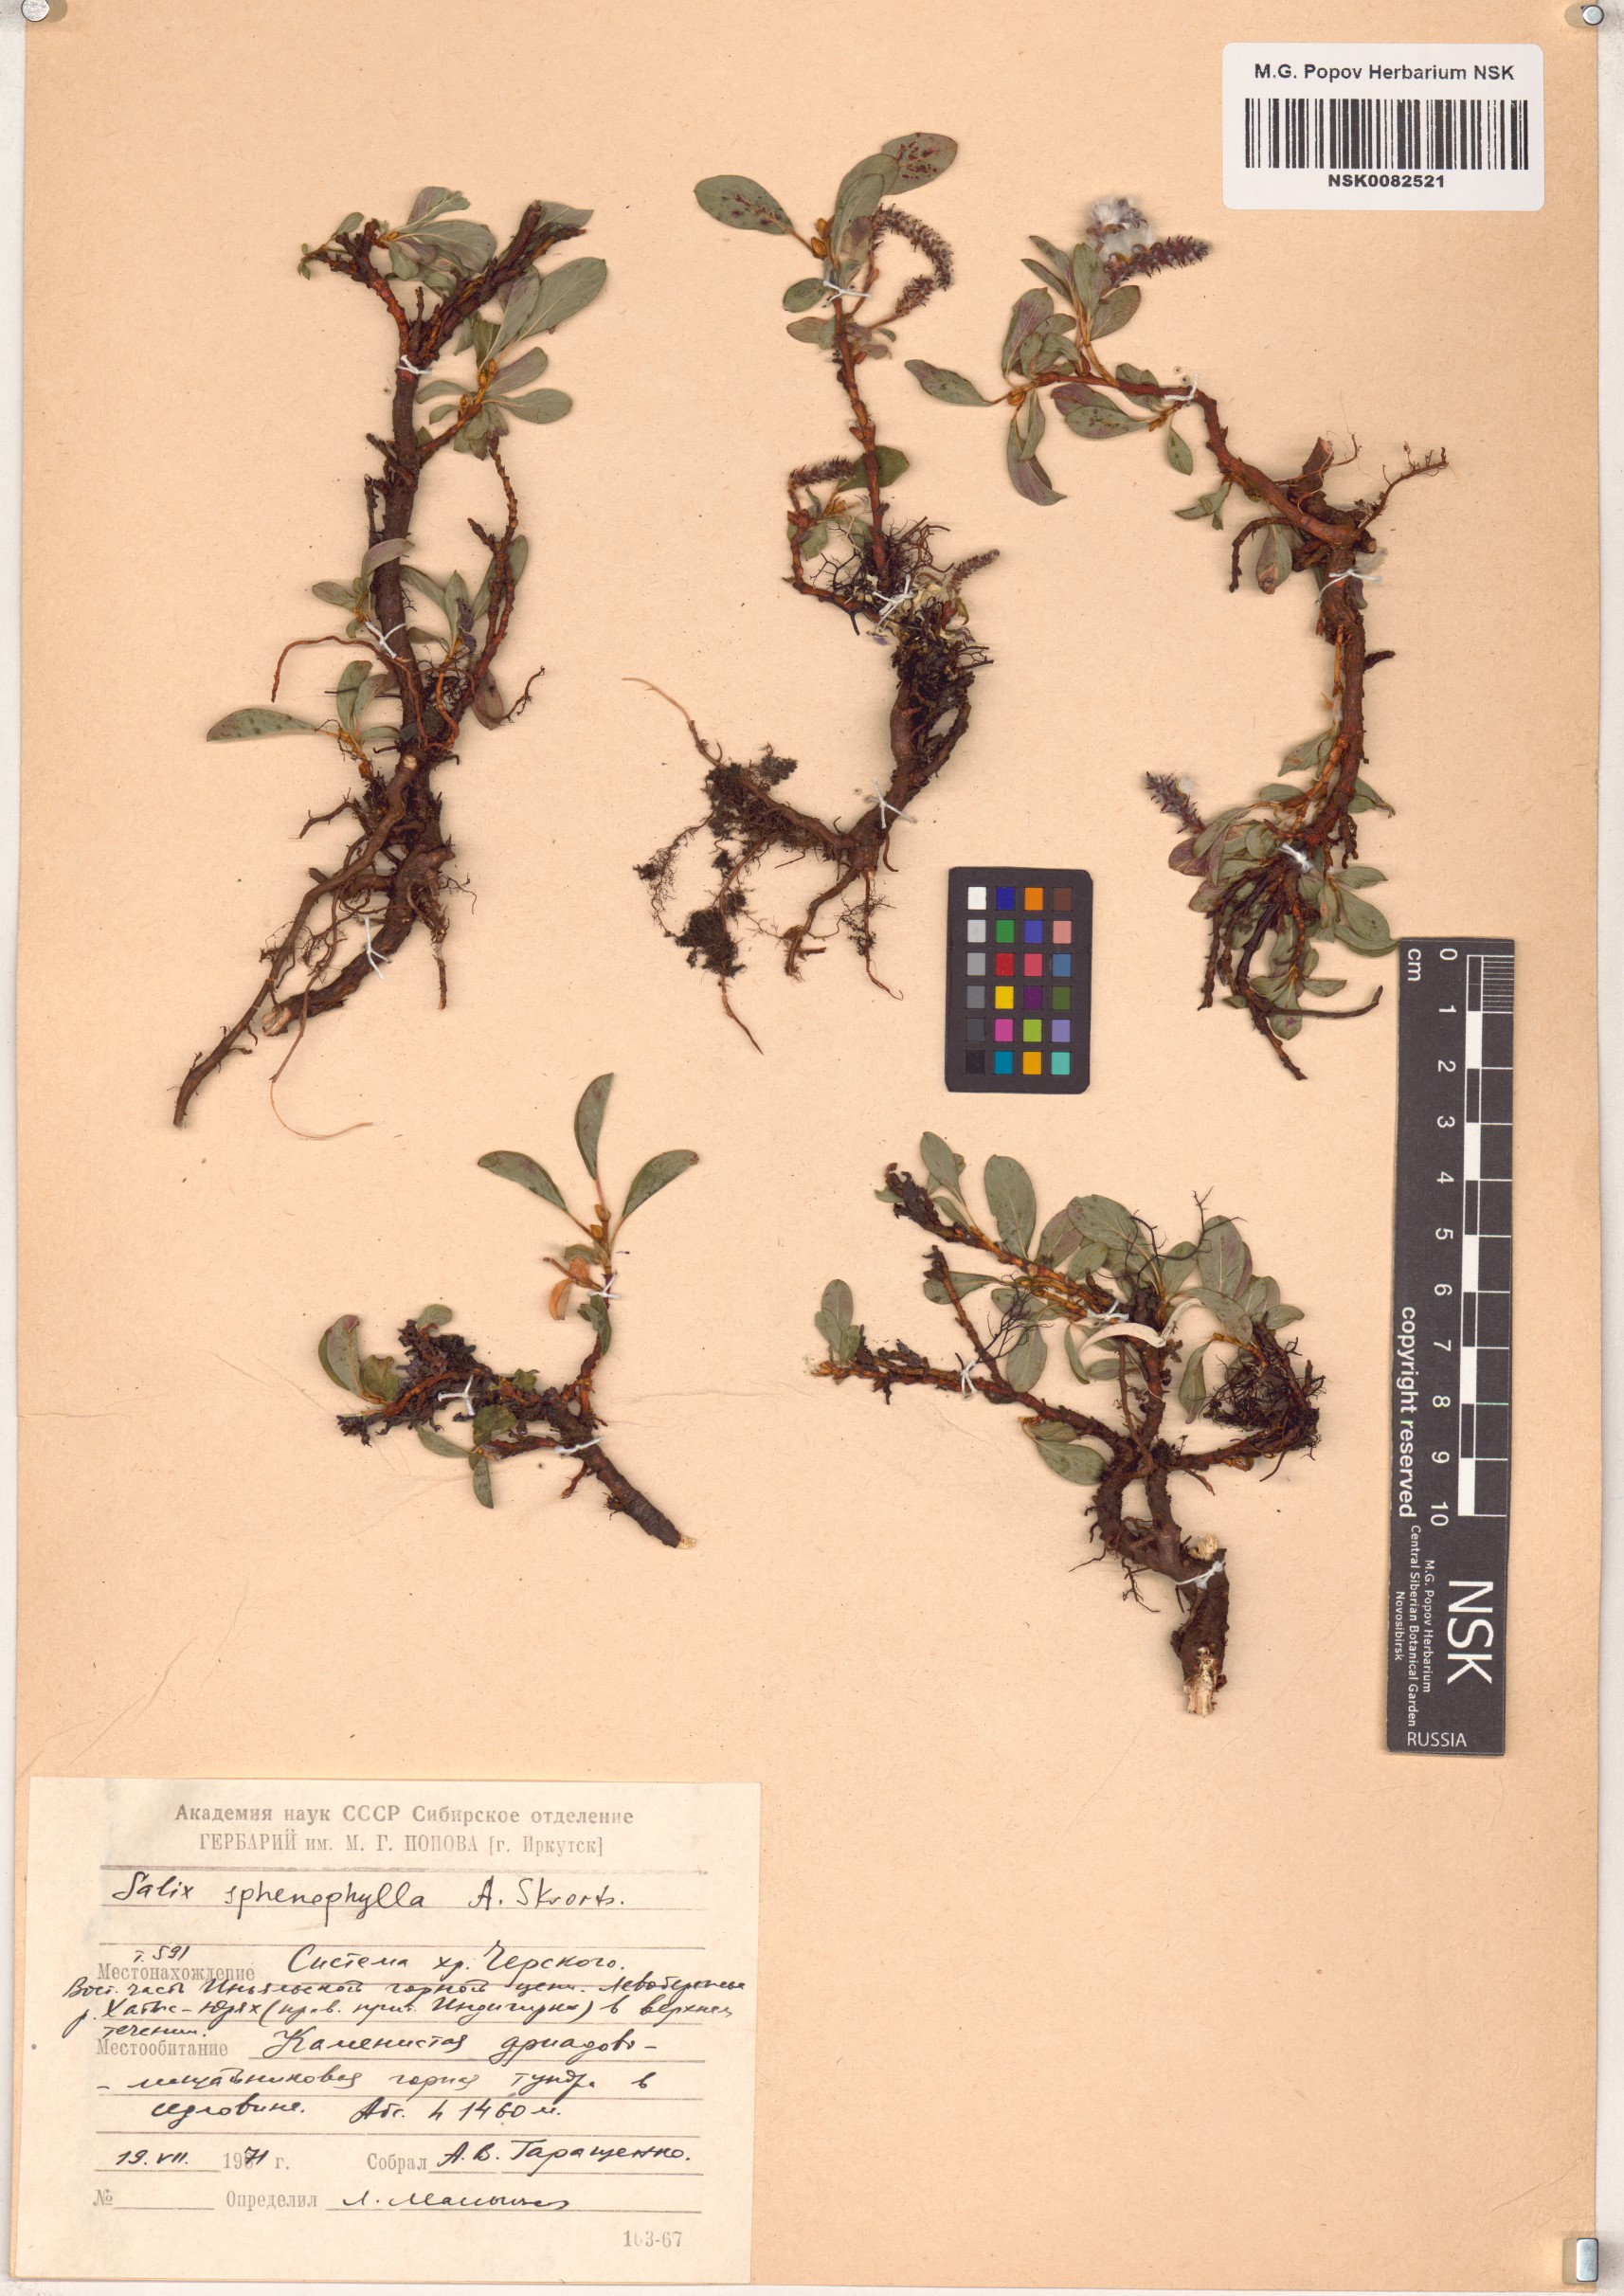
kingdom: Plantae
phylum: Tracheophyta
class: Magnoliopsida
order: Malpighiales
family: Salicaceae
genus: Salix
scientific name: Salix sphenophylla
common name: Wedge-leaved willow
